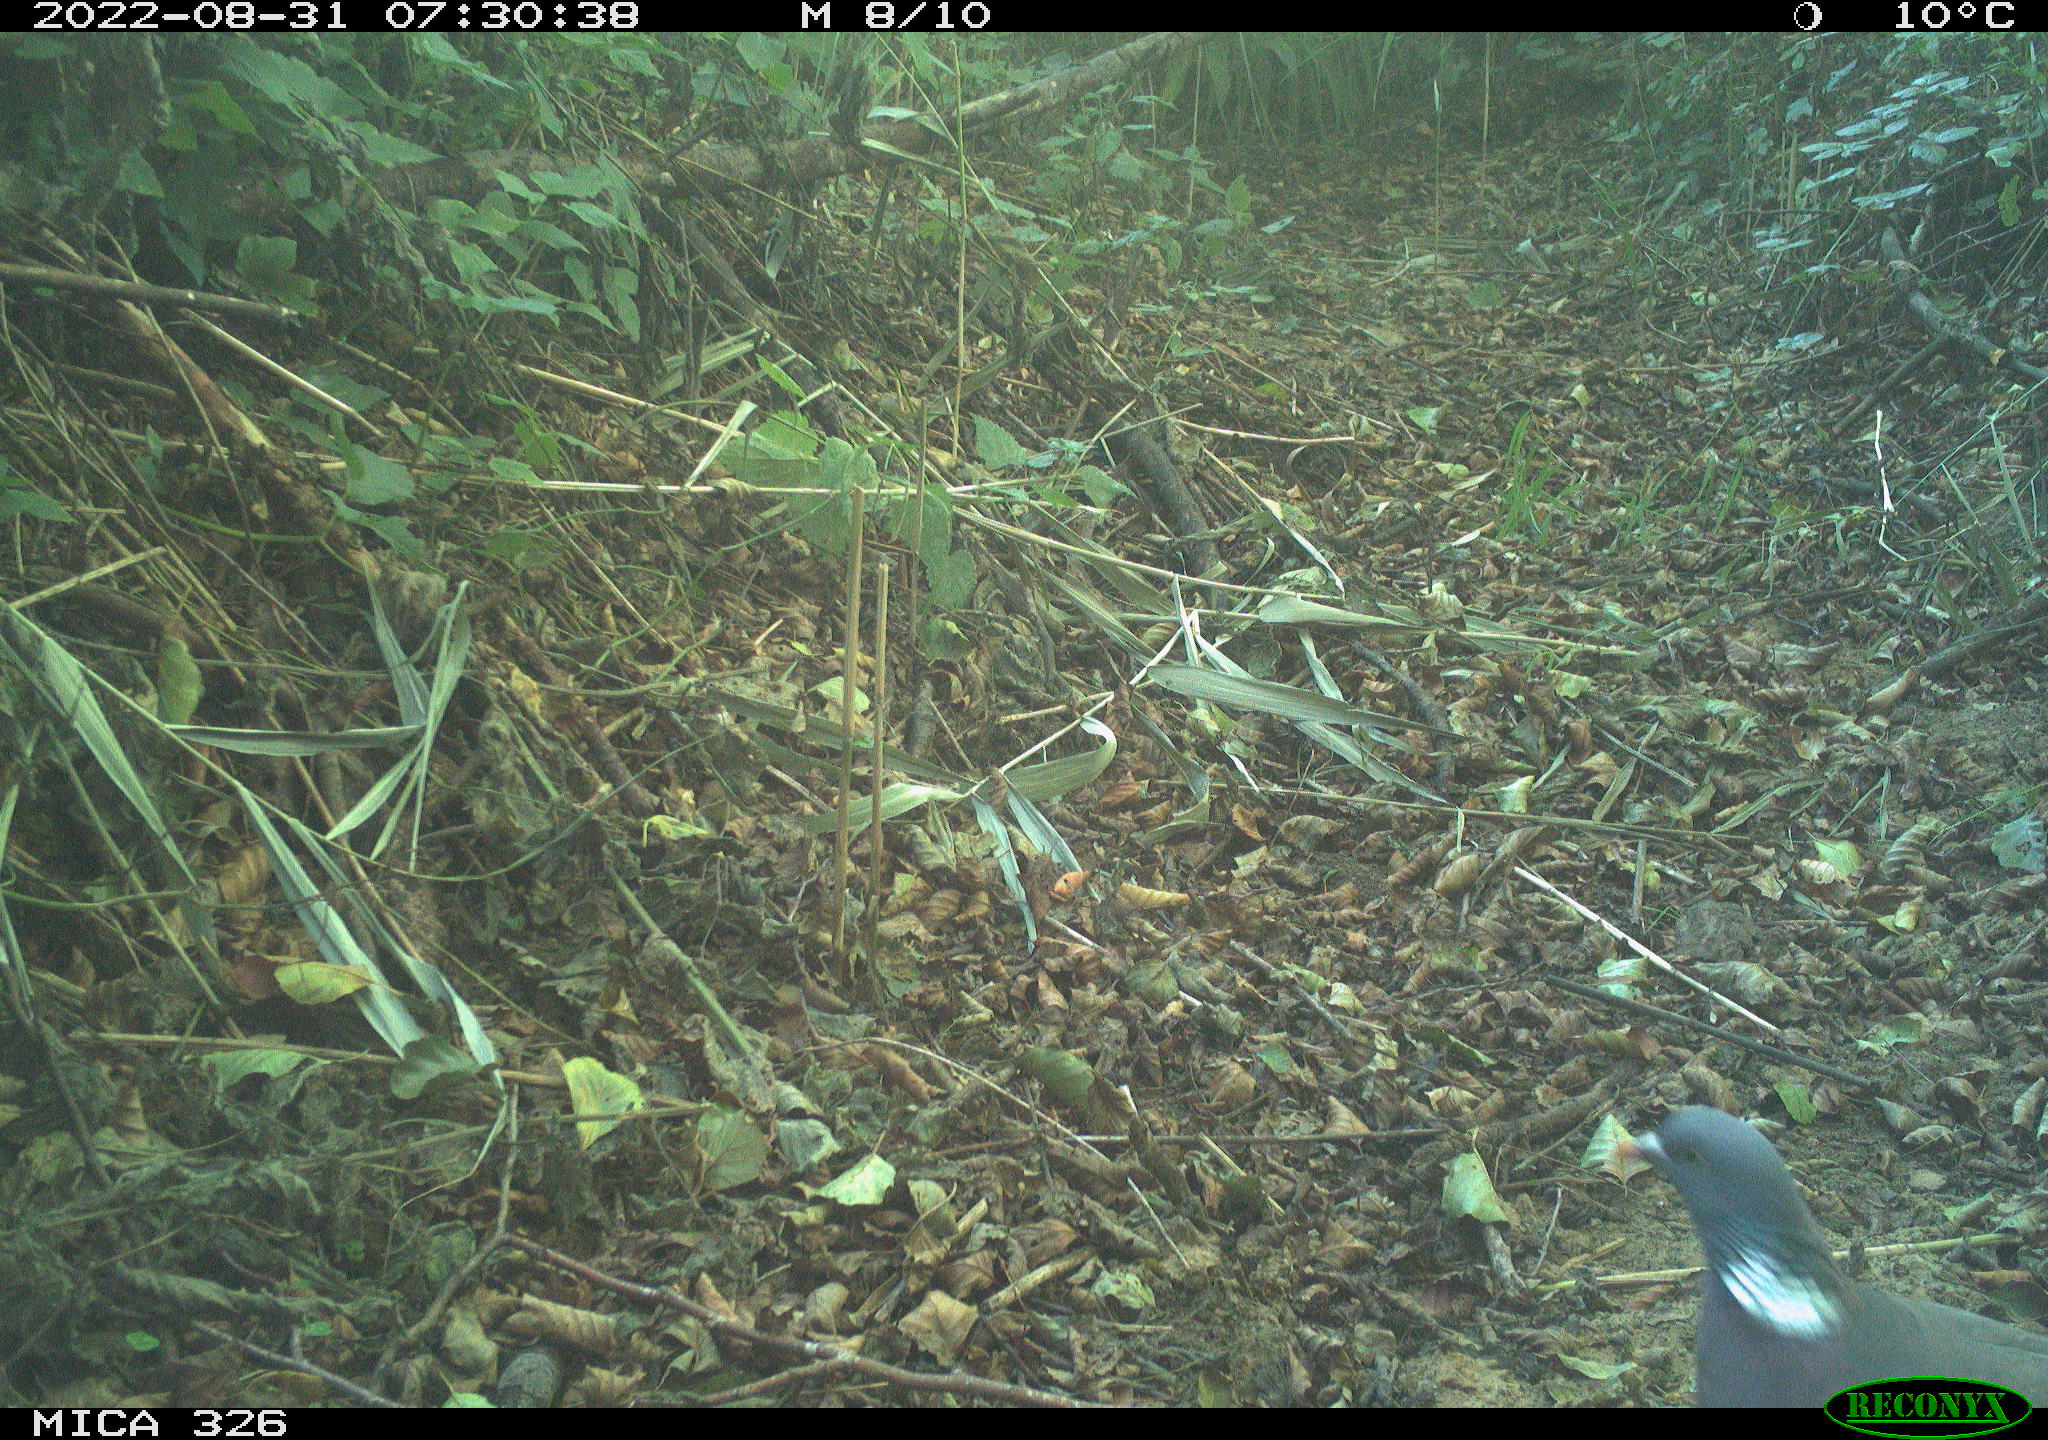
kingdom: Animalia
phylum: Chordata
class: Aves
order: Columbiformes
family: Columbidae
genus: Columba
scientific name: Columba palumbus
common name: Common wood pigeon
